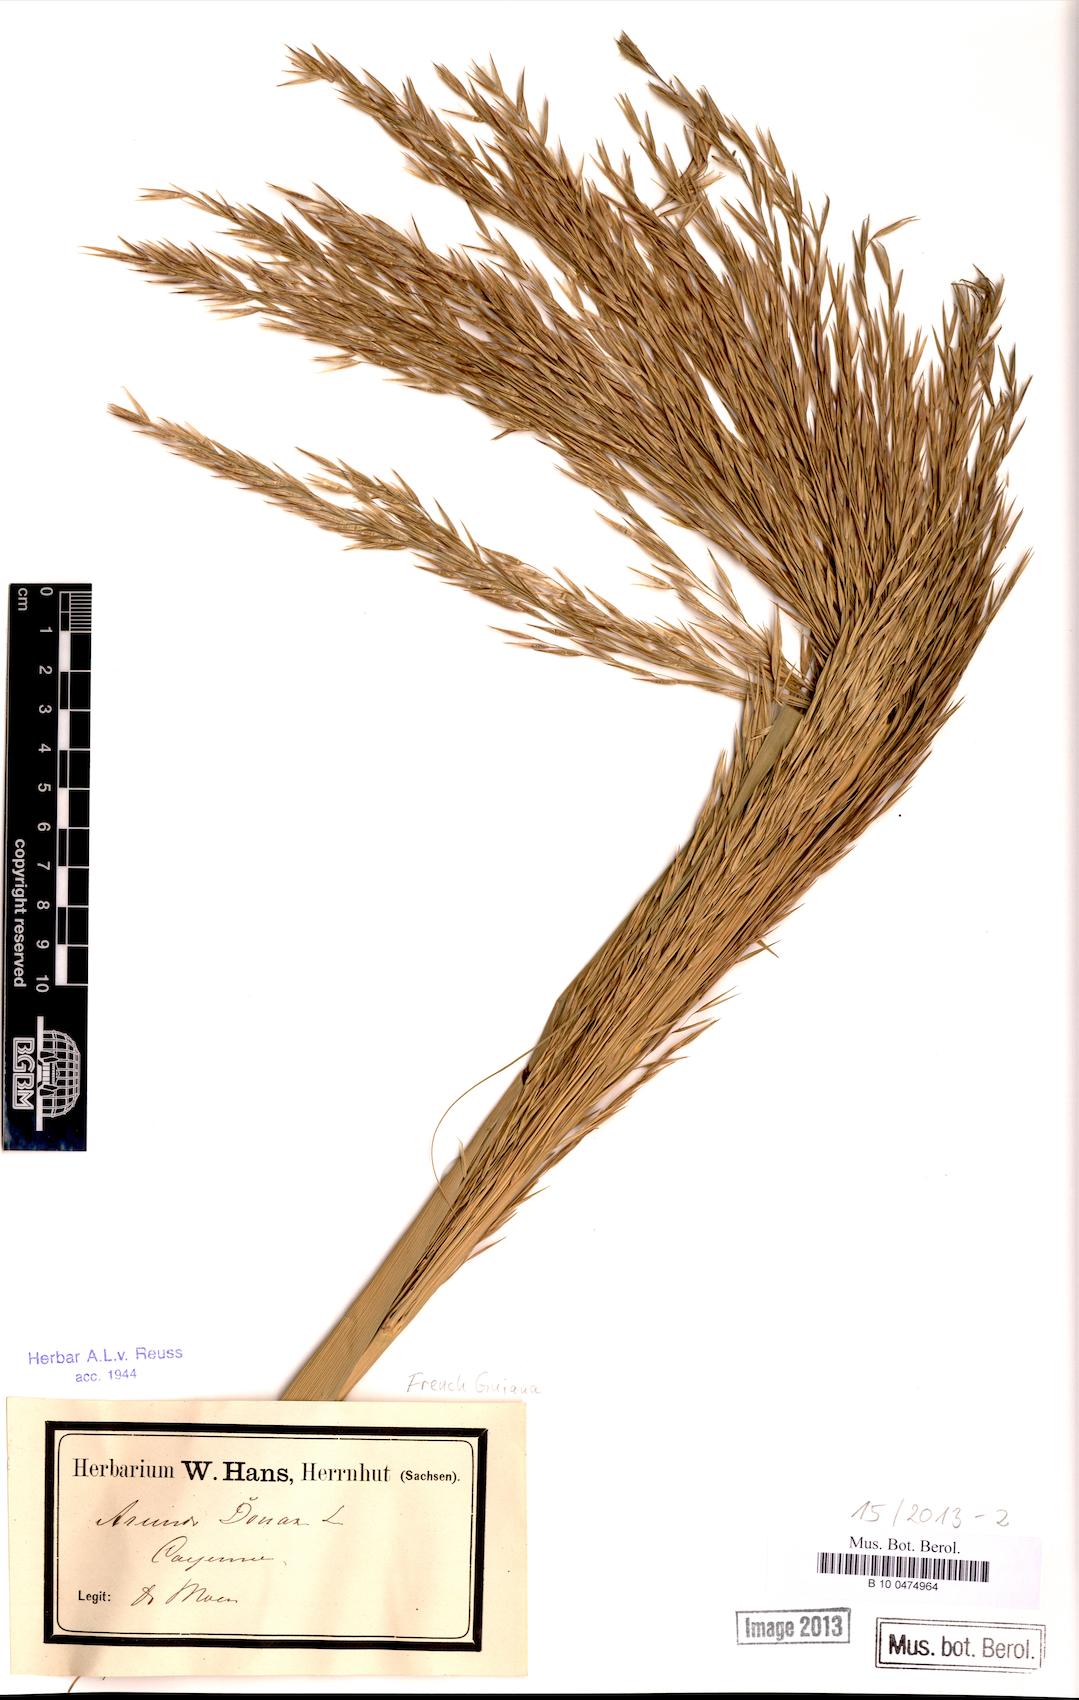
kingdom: Plantae
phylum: Tracheophyta
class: Liliopsida
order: Poales
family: Poaceae
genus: Arundo
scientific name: Arundo donax
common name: Giant reed
